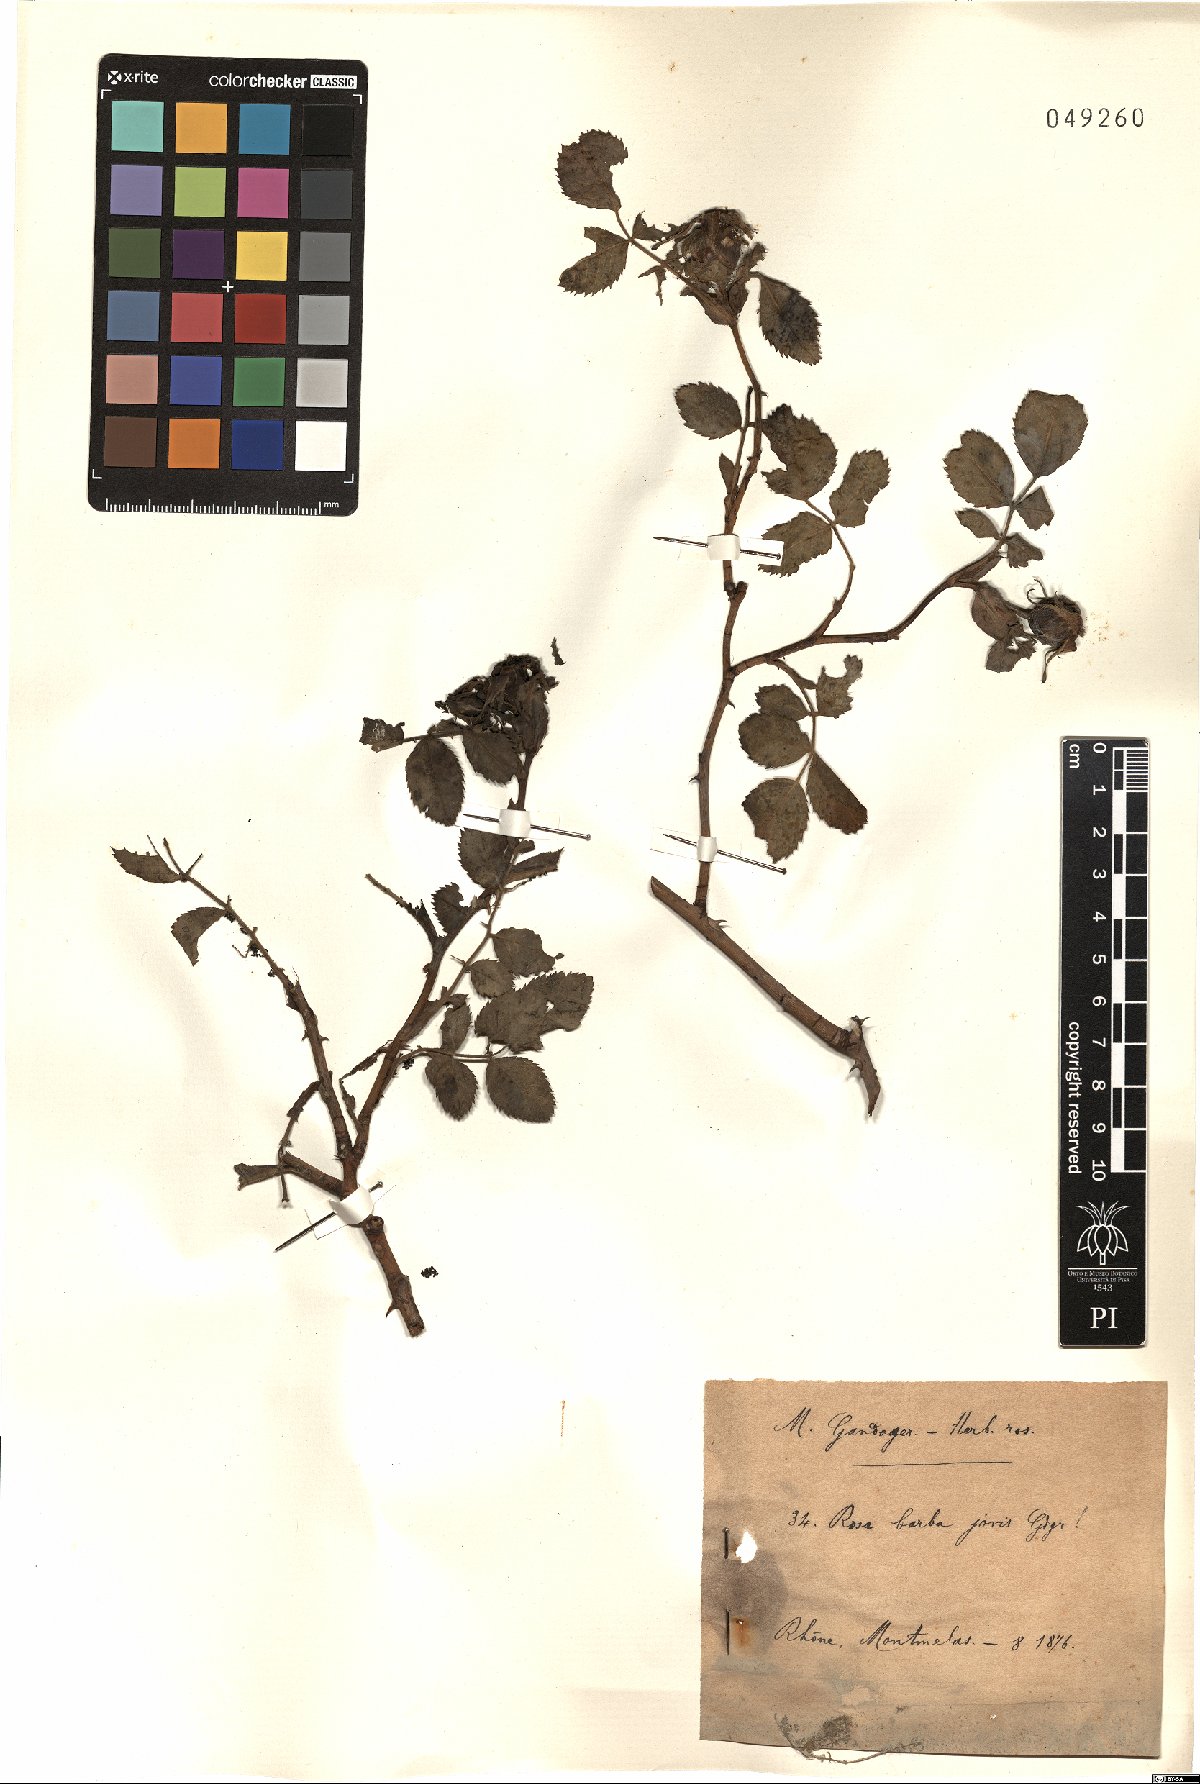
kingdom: Plantae
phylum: Tracheophyta
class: Magnoliopsida
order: Rosales
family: Rosaceae
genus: Rosa
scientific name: Rosa barbajovis
